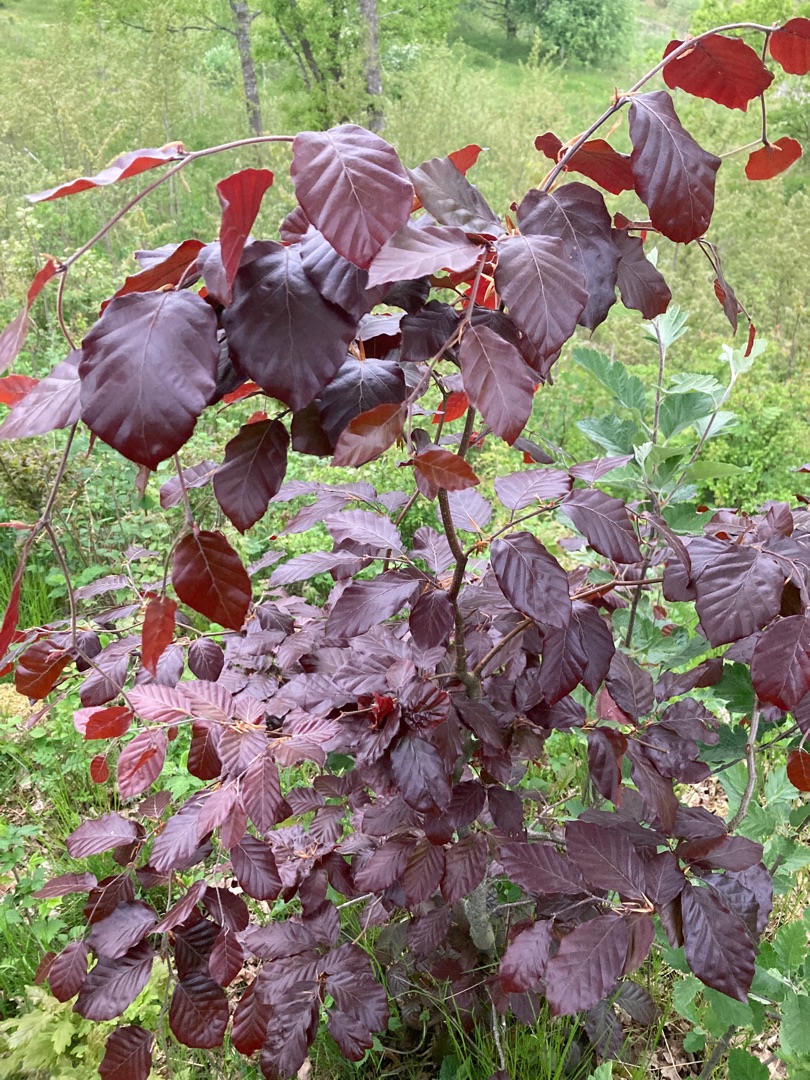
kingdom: Plantae
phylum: Tracheophyta
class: Magnoliopsida
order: Fagales
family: Fagaceae
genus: Fagus
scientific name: Fagus sylvatica
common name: Bøg
